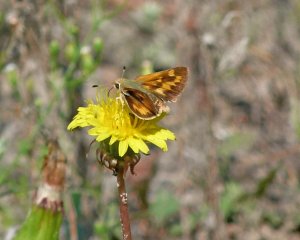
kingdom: Animalia
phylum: Arthropoda
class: Insecta
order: Lepidoptera
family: Hesperiidae
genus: Ochlodes
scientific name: Ochlodes sylvanoides
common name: Woodland Skipper
